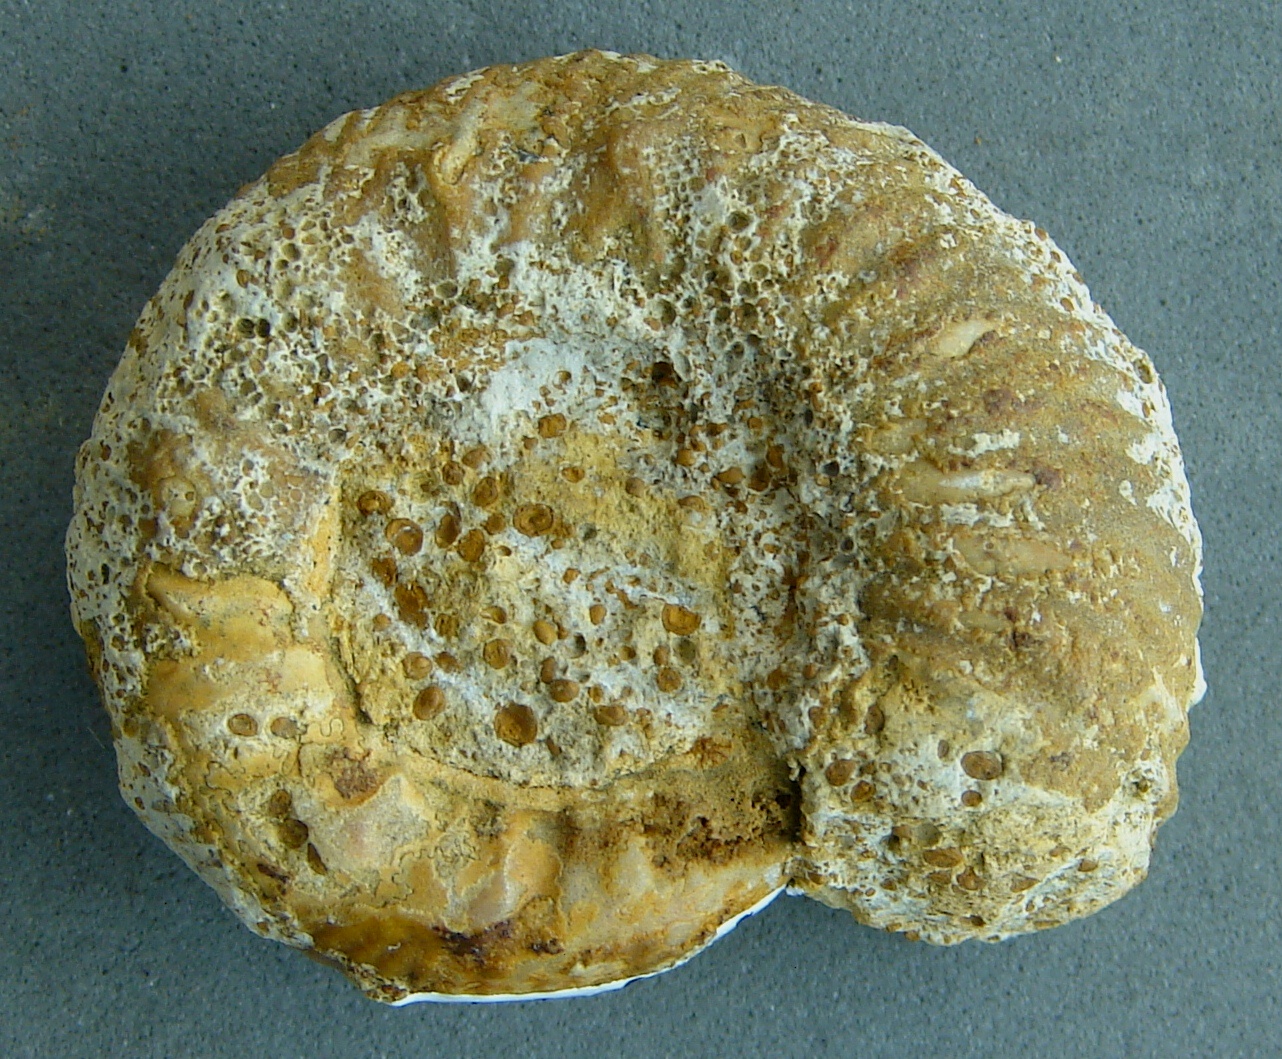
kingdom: Animalia
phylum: Mollusca
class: Cephalopoda
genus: Ammonites
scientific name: Ammonites
